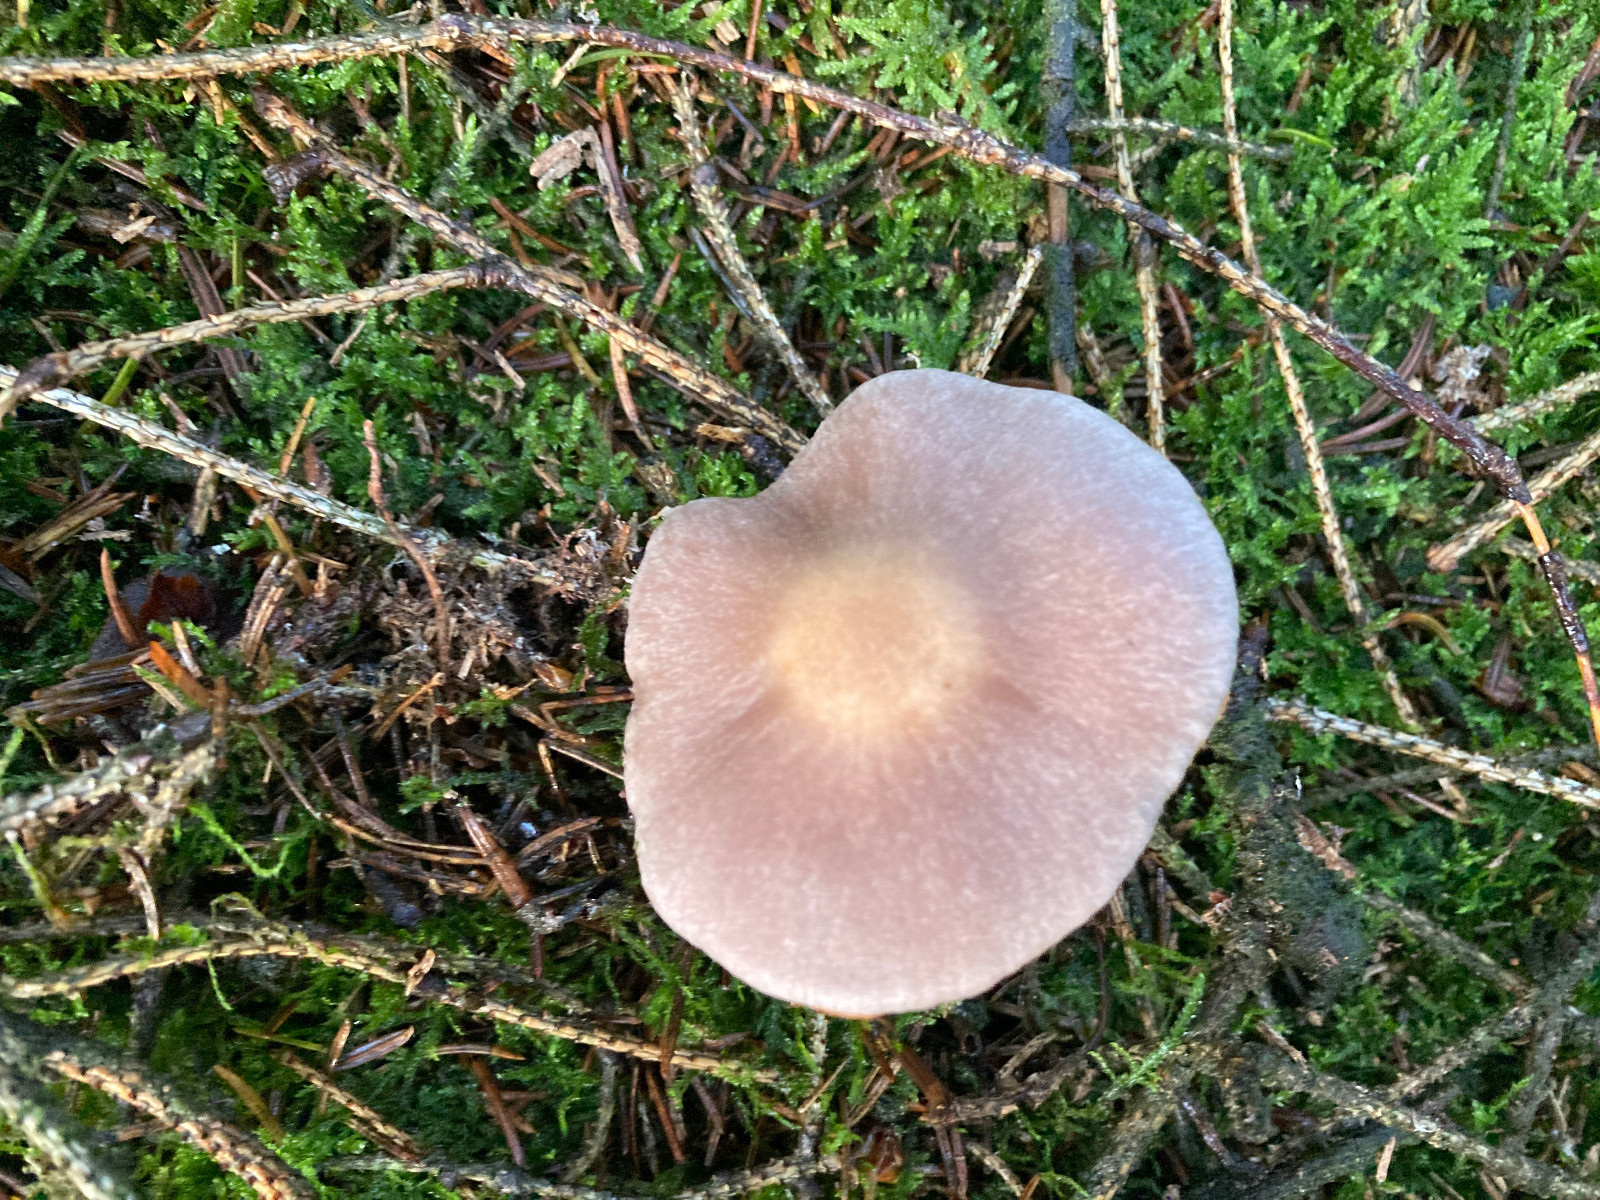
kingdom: Fungi
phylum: Basidiomycota
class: Agaricomycetes
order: Agaricales
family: Cortinariaceae
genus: Cortinarius
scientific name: Cortinarius
